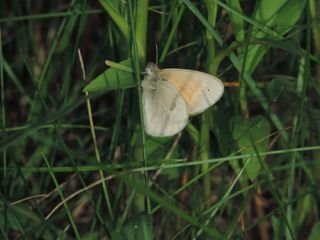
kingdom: Animalia
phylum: Arthropoda
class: Insecta
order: Lepidoptera
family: Nymphalidae
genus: Coenonympha
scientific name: Coenonympha tullia
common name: Large Heath
